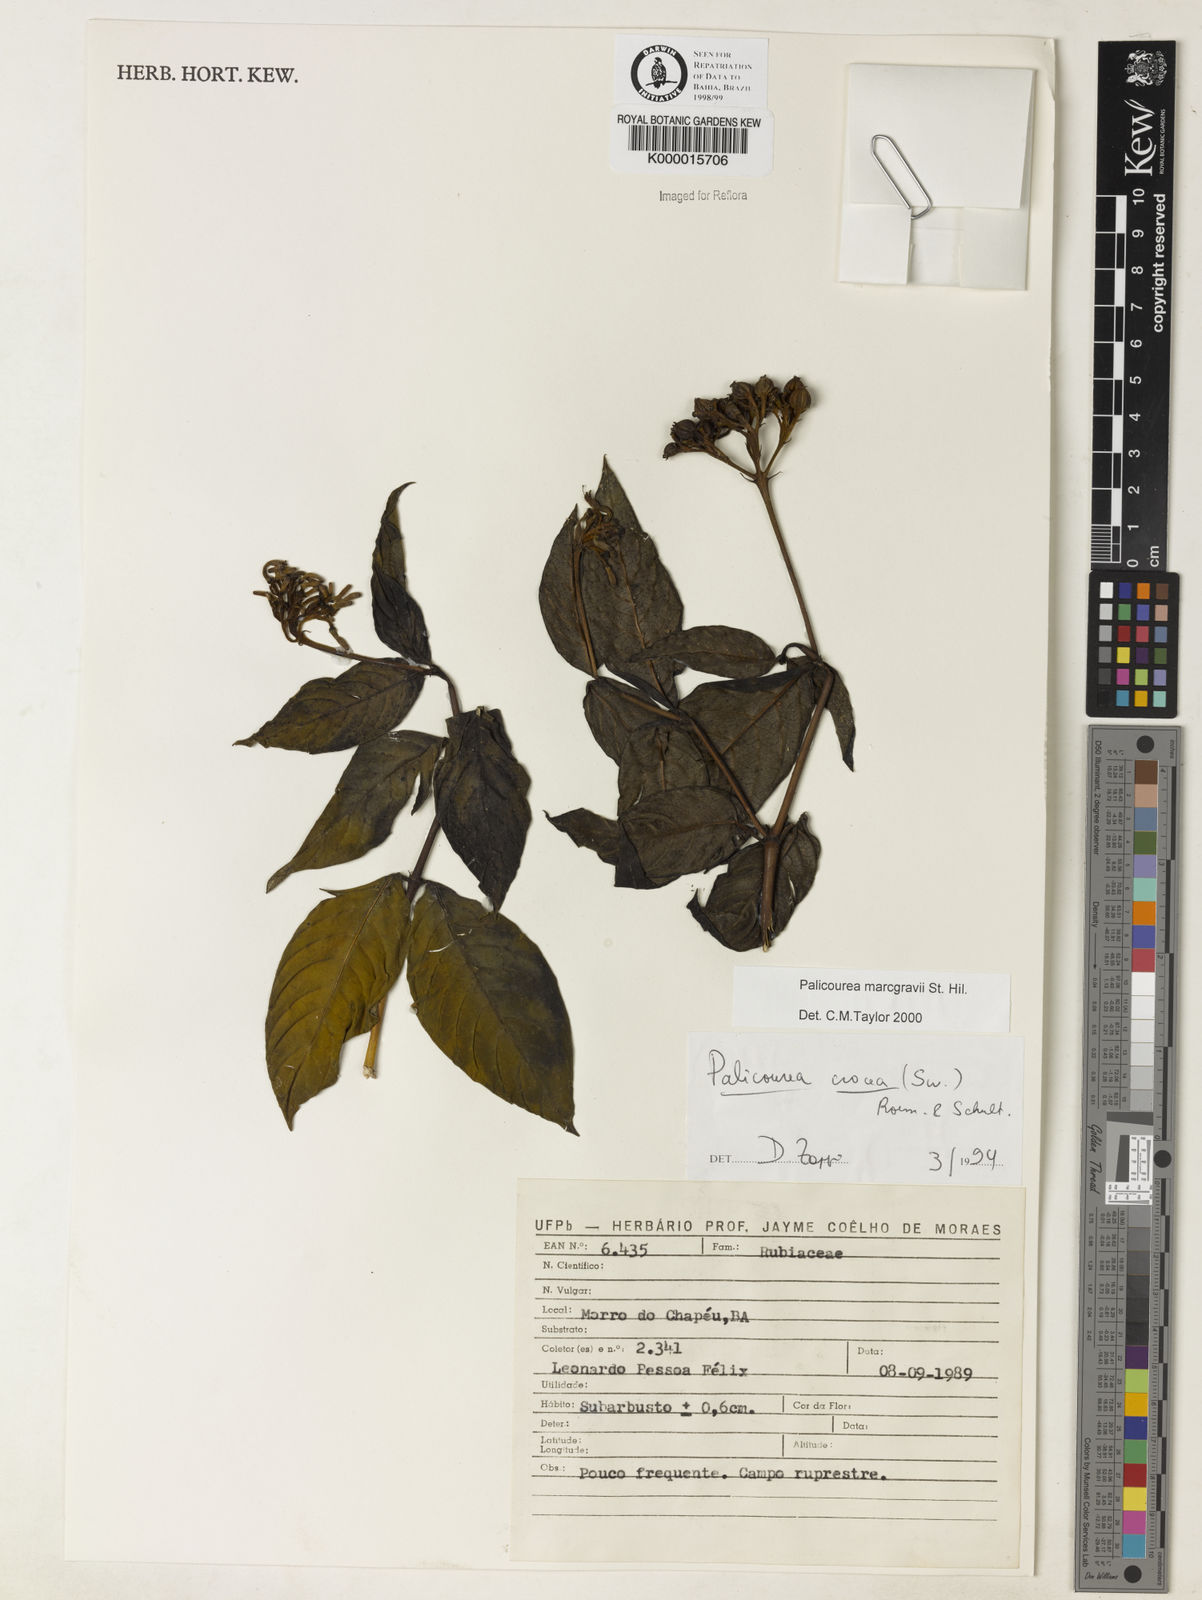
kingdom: Plantae
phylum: Tracheophyta
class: Magnoliopsida
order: Gentianales
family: Rubiaceae
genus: Palicourea
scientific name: Palicourea marcgravii
